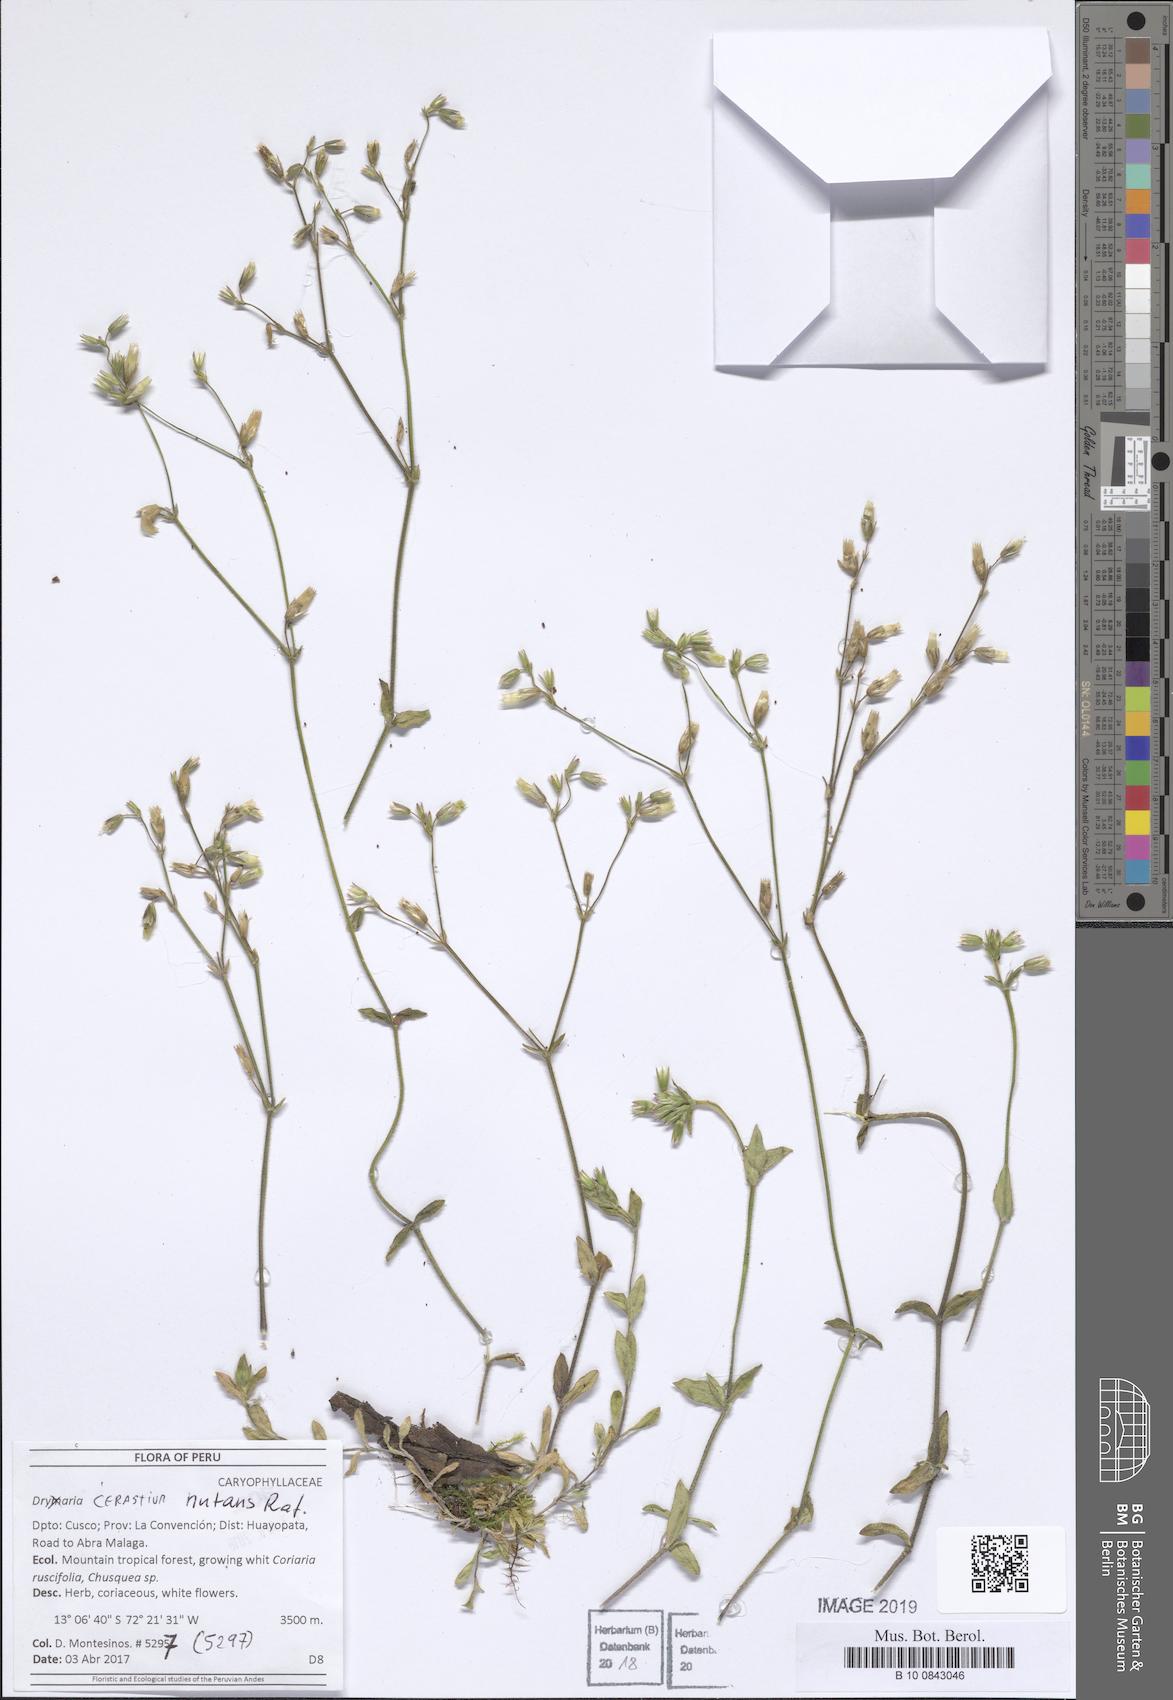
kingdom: Plantae
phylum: Tracheophyta
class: Magnoliopsida
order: Caryophyllales
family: Caryophyllaceae
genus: Cerastium
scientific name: Cerastium nutans
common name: Long-stalked chickweed
